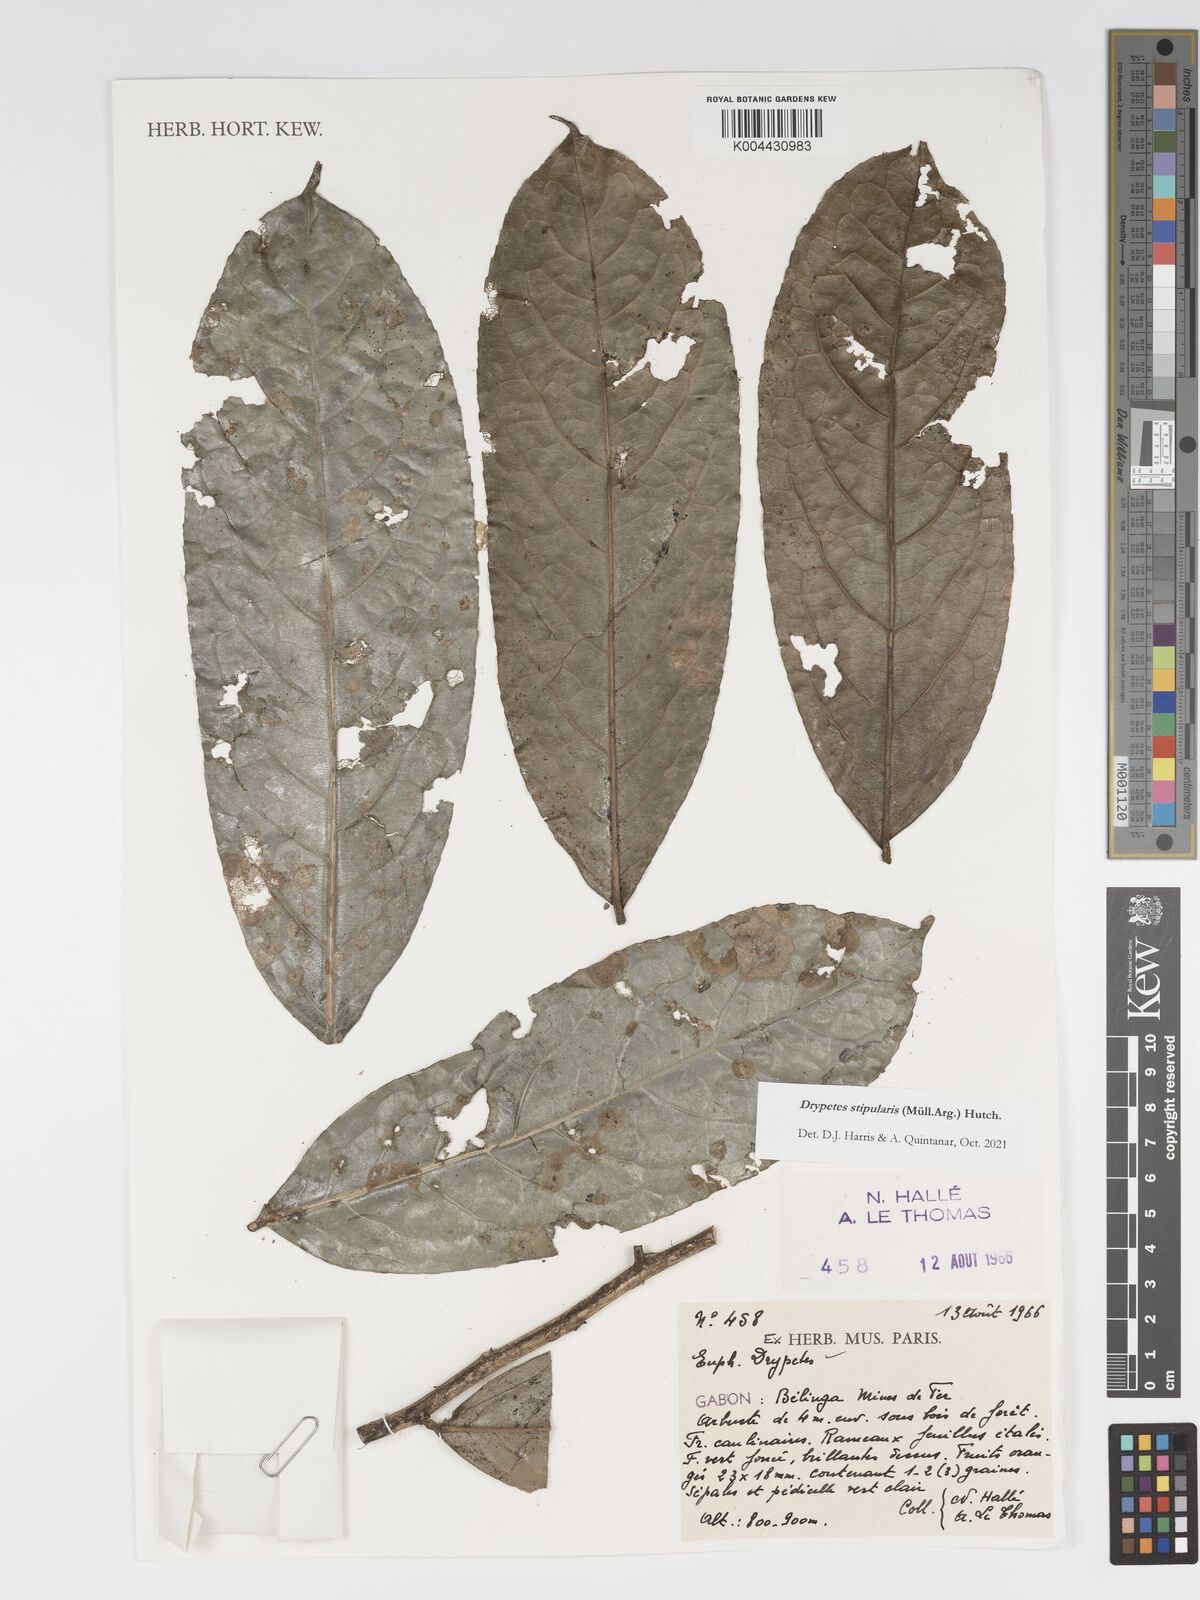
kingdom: Plantae
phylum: Tracheophyta
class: Magnoliopsida
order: Malpighiales
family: Putranjivaceae
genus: Drypetes
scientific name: Drypetes stipularis
